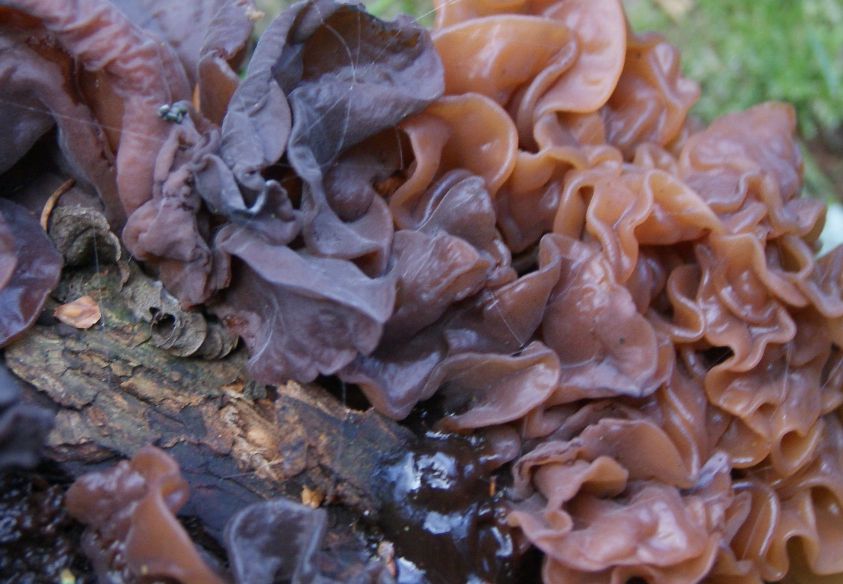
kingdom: Fungi
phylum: Basidiomycota
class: Tremellomycetes
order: Tremellales
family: Tremellaceae
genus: Phaeotremella
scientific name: Phaeotremella frondosa
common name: kæmpe-bævresvamp
